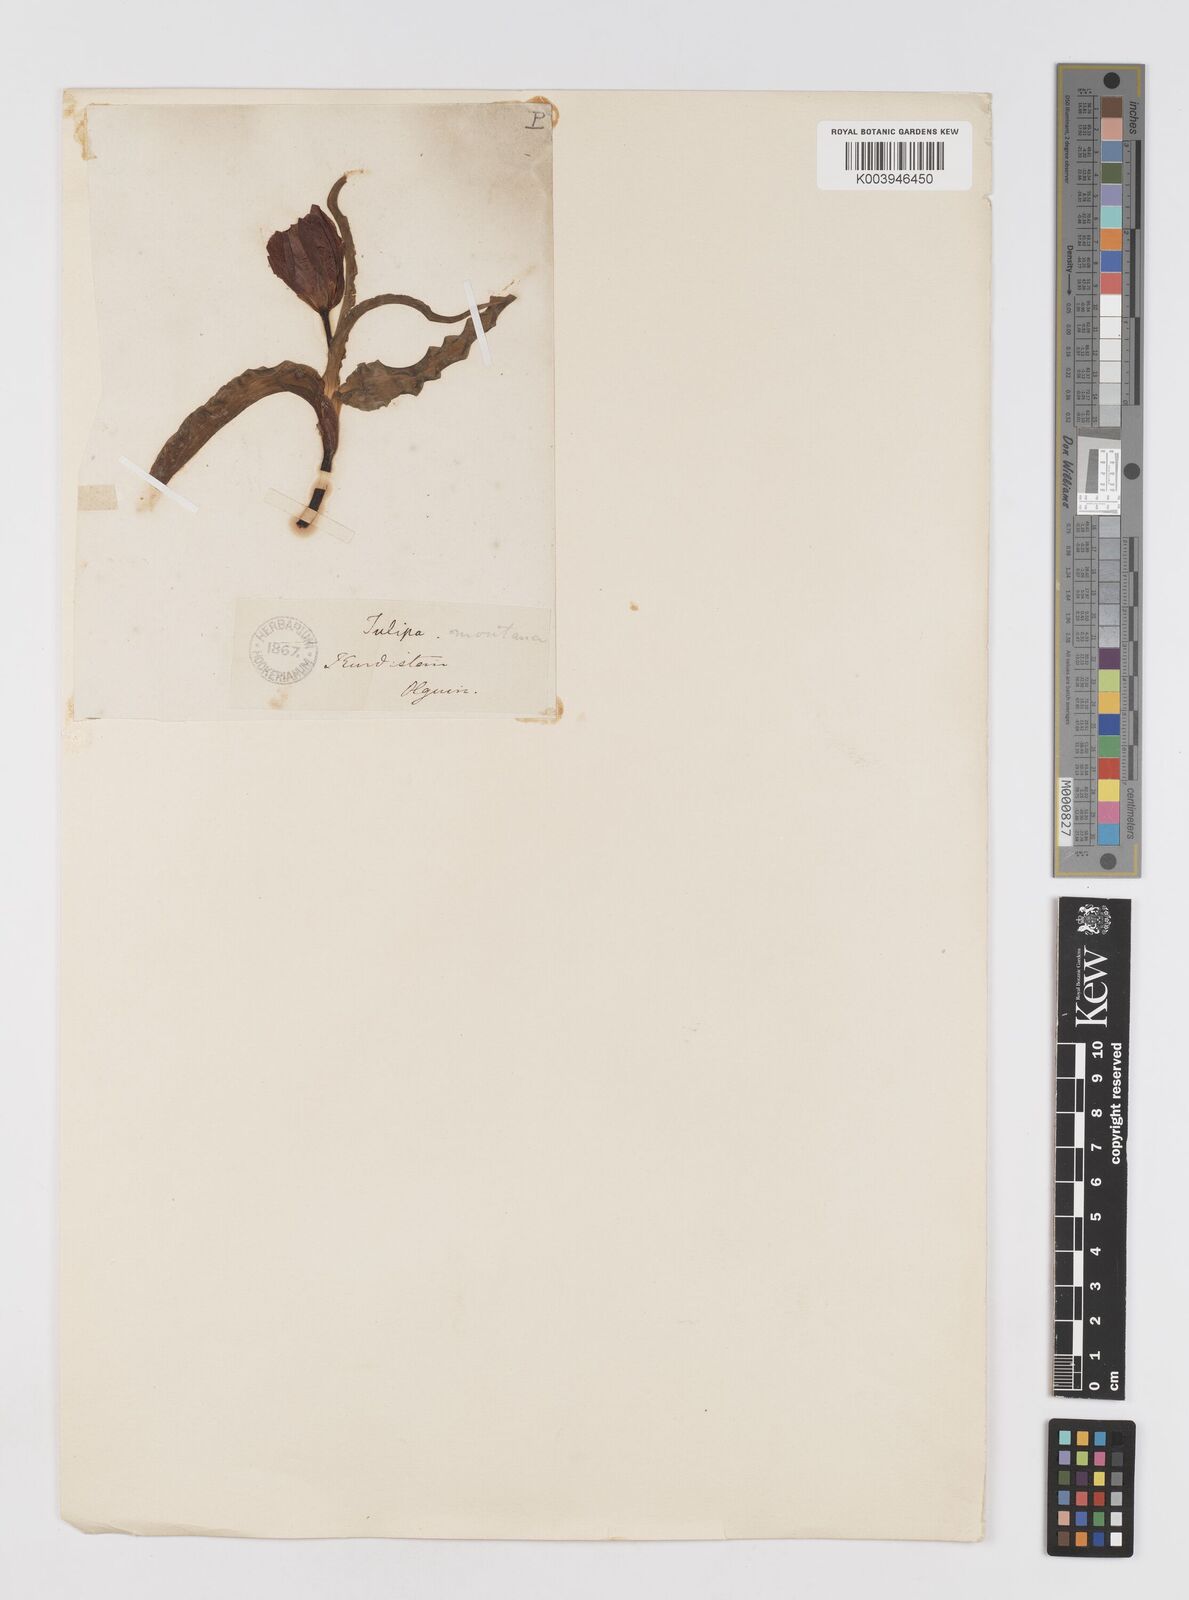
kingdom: Plantae
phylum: Tracheophyta
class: Liliopsida
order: Liliales
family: Liliaceae
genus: Tulipa
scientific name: Tulipa
